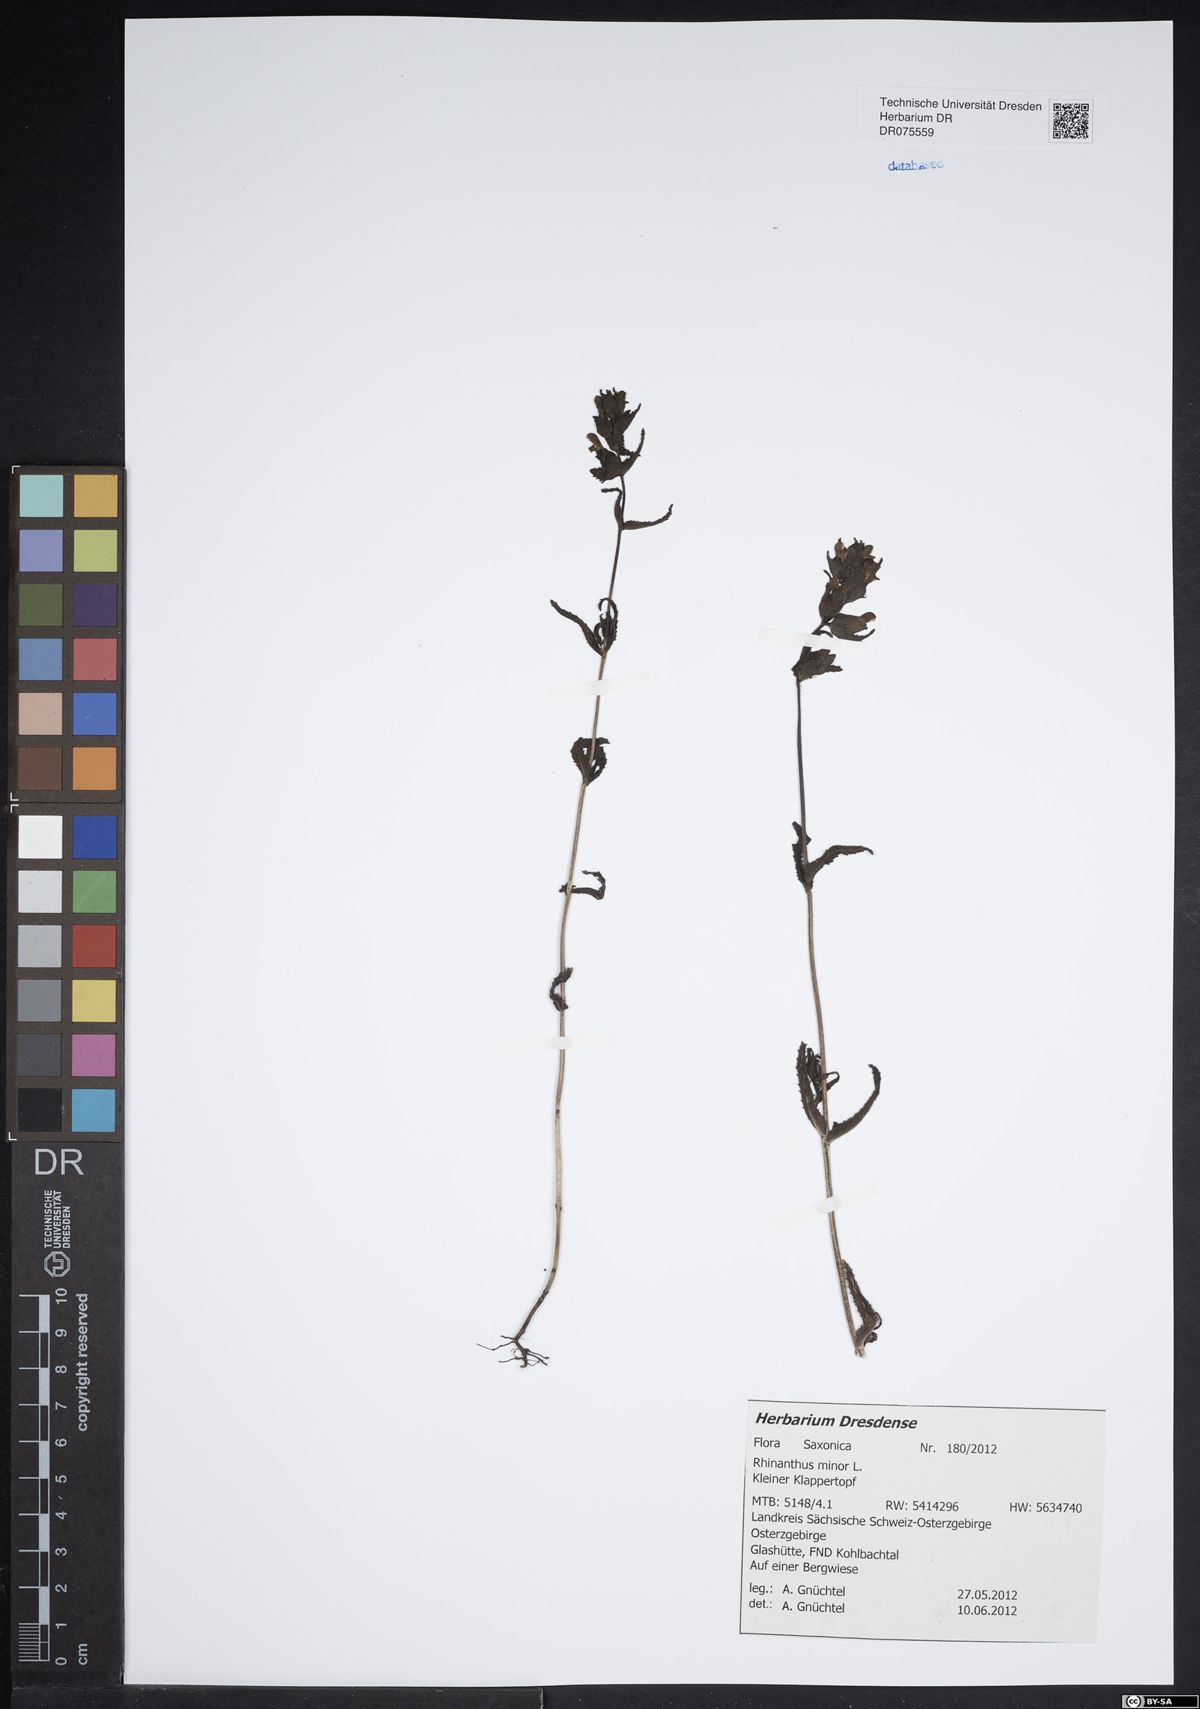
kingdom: Plantae
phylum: Tracheophyta
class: Magnoliopsida
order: Lamiales
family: Orobanchaceae
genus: Rhinanthus
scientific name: Rhinanthus minor
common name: Yellow-rattle
